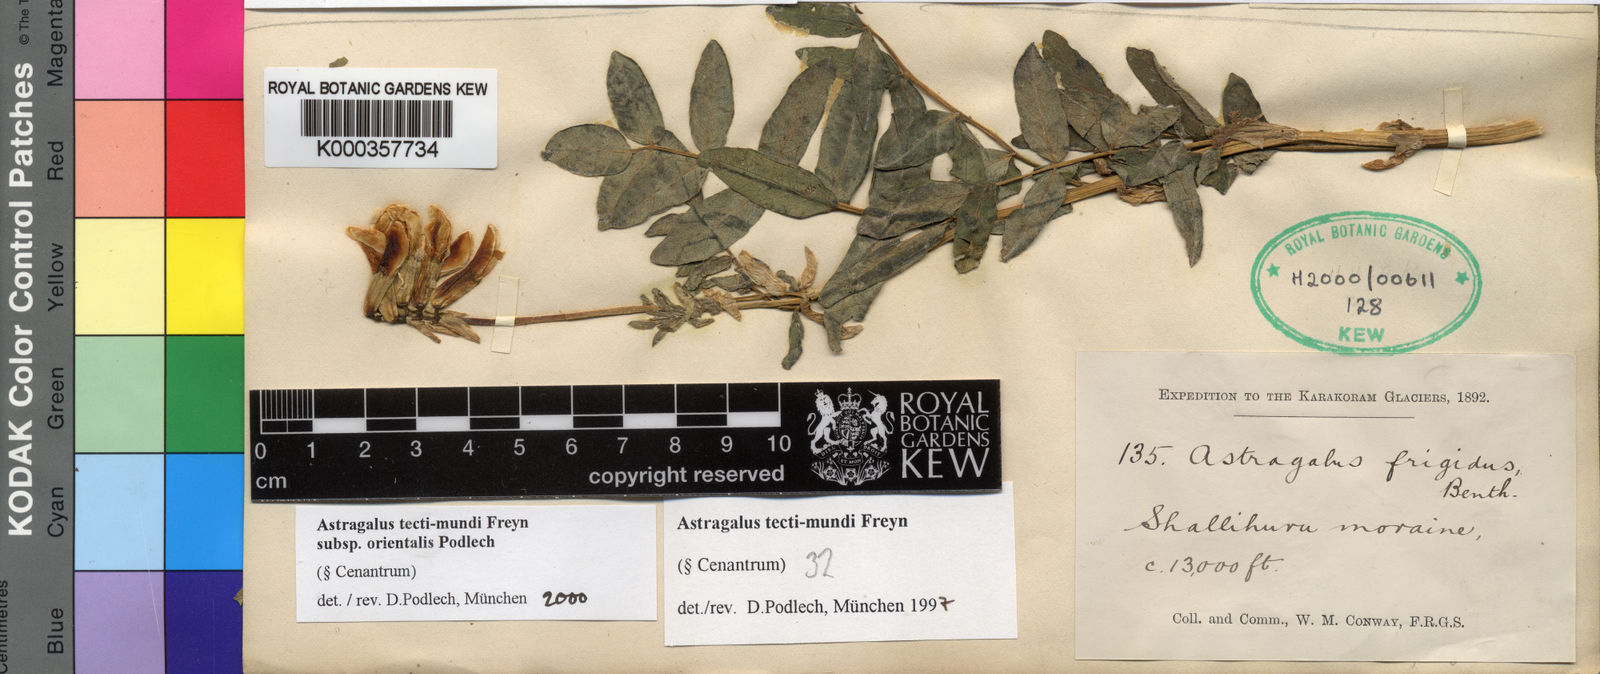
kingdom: Plantae
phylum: Tracheophyta
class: Magnoliopsida
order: Fabales
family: Fabaceae
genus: Astragalus
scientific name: Astragalus tecti-mundi
